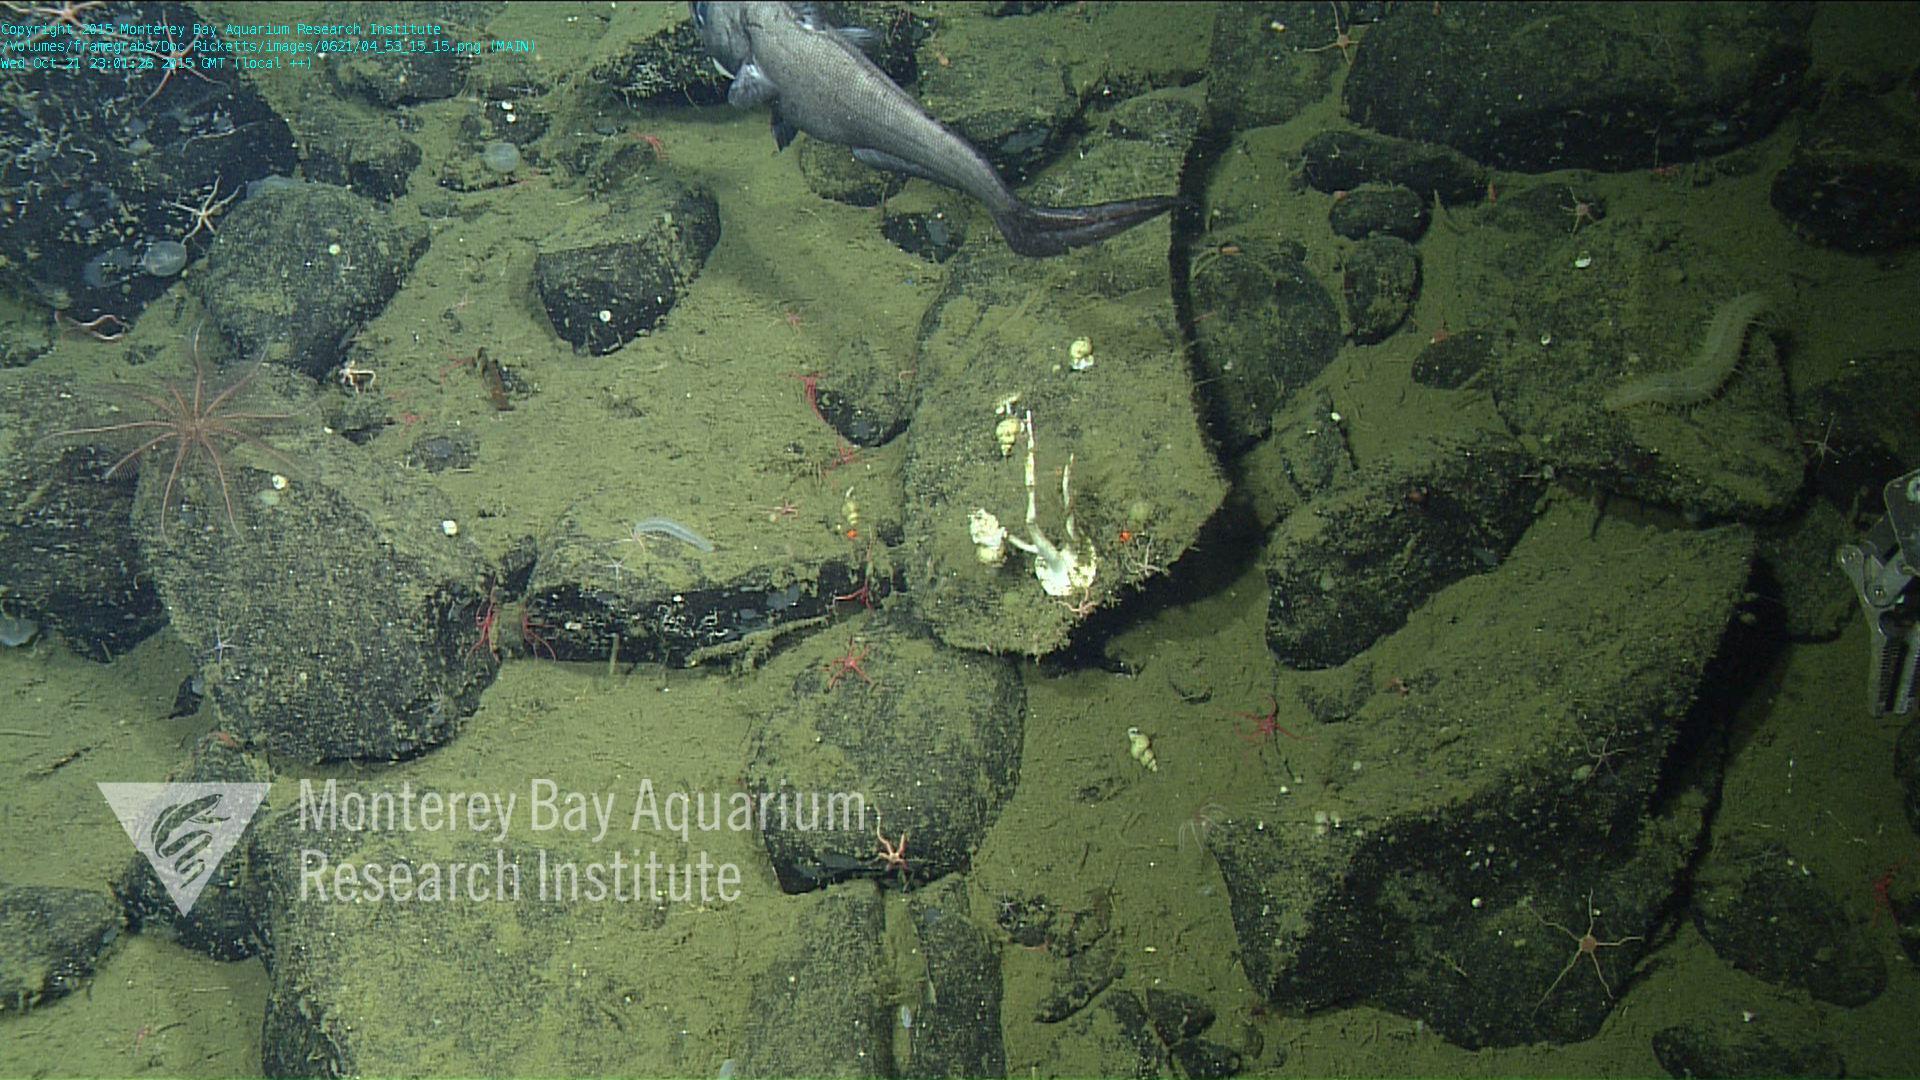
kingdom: Animalia
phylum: Cnidaria
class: Anthozoa
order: Scleralcyonacea
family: Keratoisididae
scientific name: Keratoisididae
